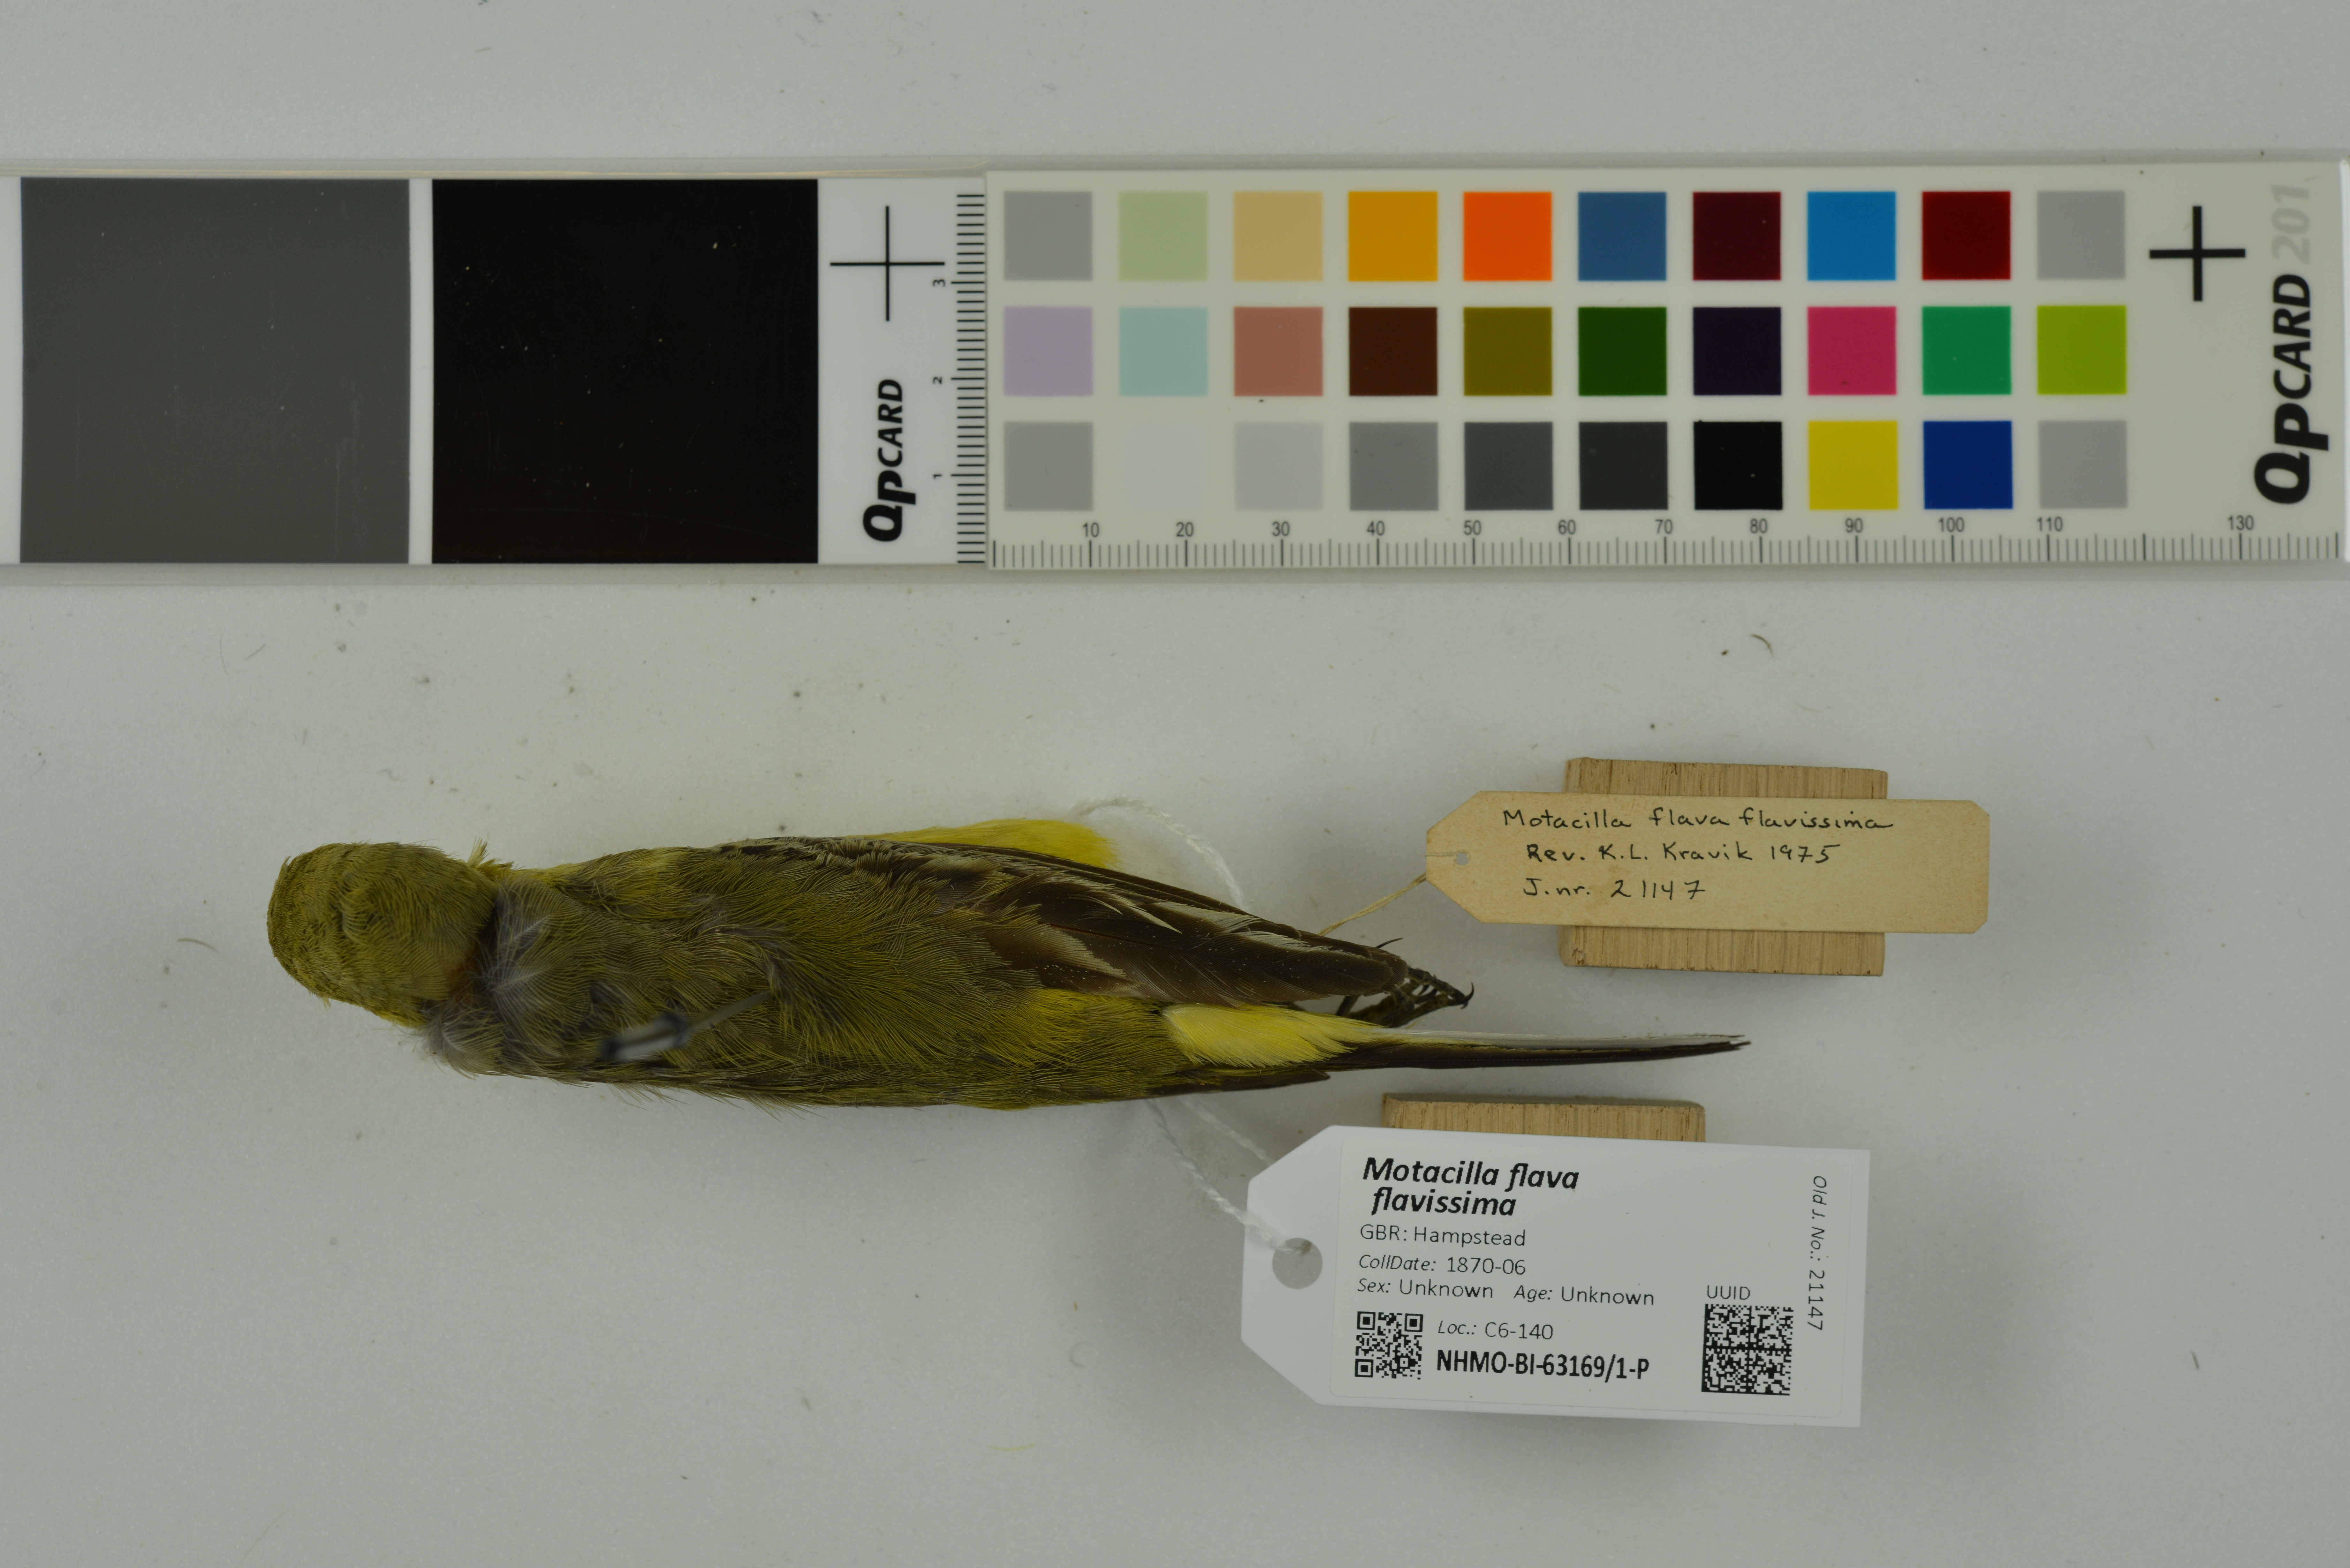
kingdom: Animalia
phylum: Chordata
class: Aves
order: Passeriformes
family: Motacillidae
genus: Motacilla
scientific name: Motacilla flava
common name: Western yellow wagtail
